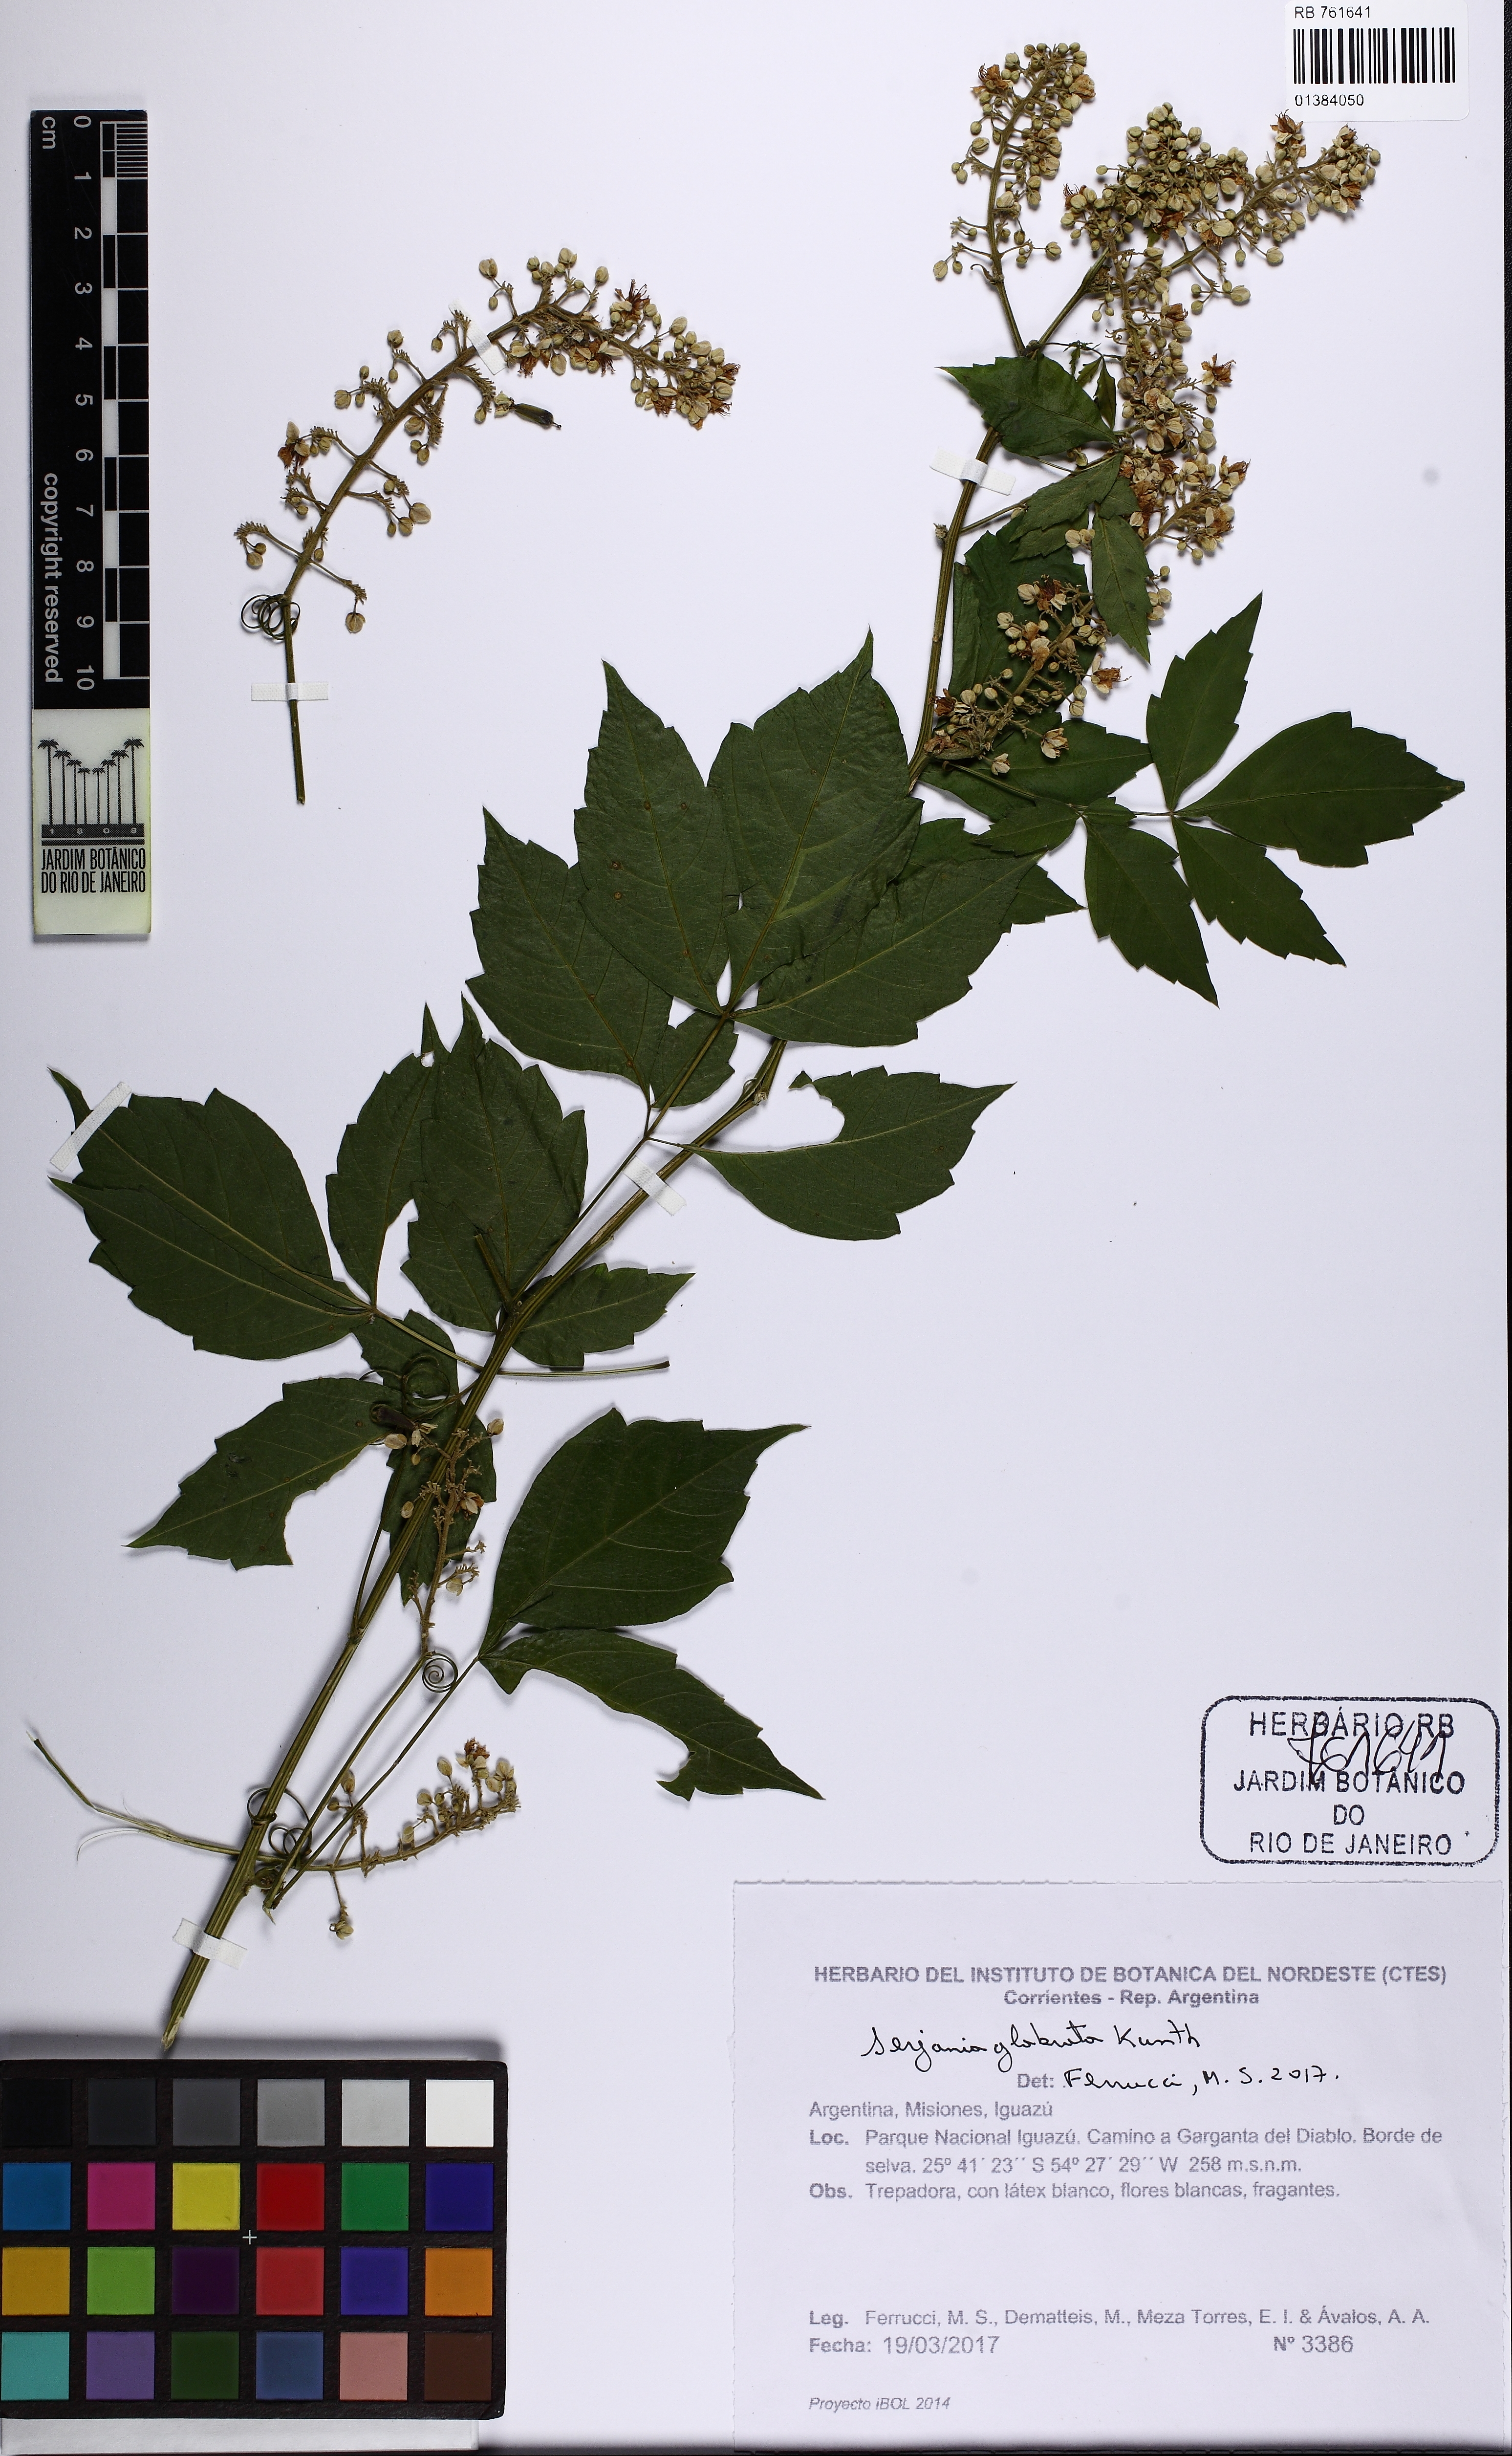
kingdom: Plantae
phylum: Tracheophyta
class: Magnoliopsida
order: Sapindales
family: Sapindaceae
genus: Serjania
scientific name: Serjania glabrata
